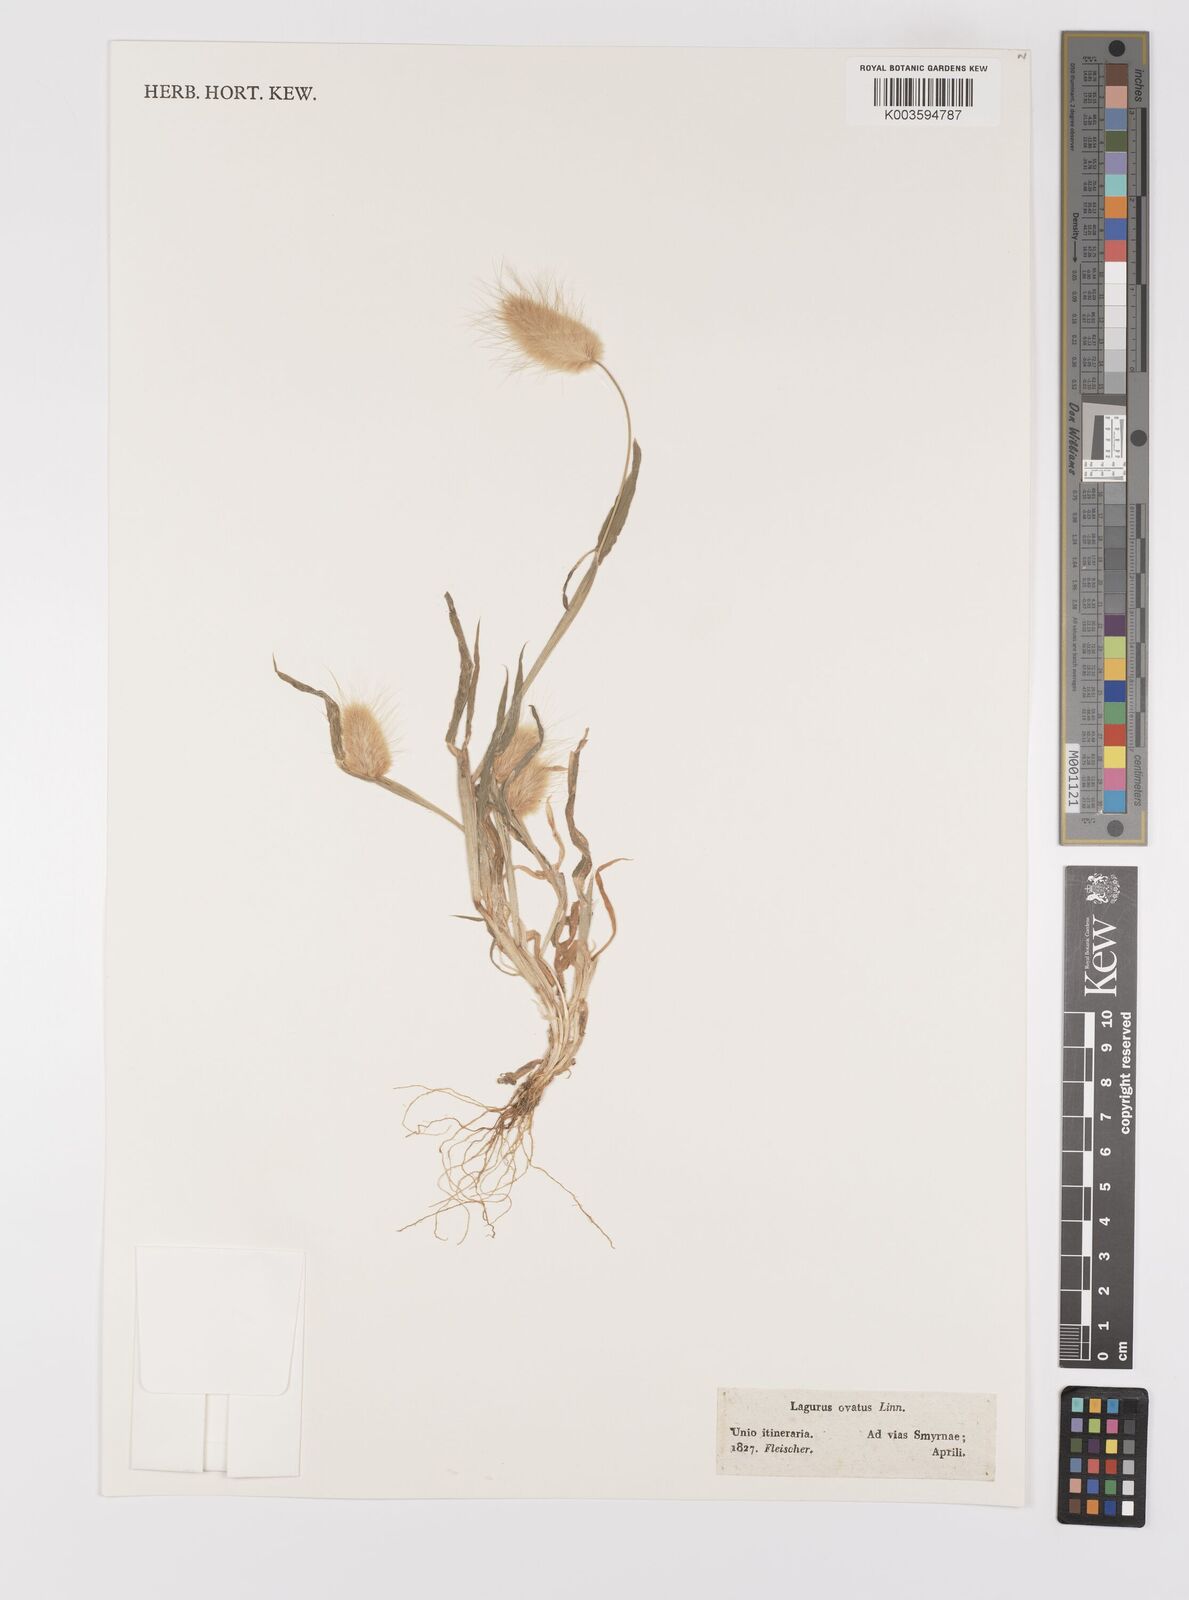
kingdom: Plantae
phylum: Tracheophyta
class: Liliopsida
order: Poales
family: Poaceae
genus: Lagurus
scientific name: Lagurus ovatus
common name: Hare's-tail
